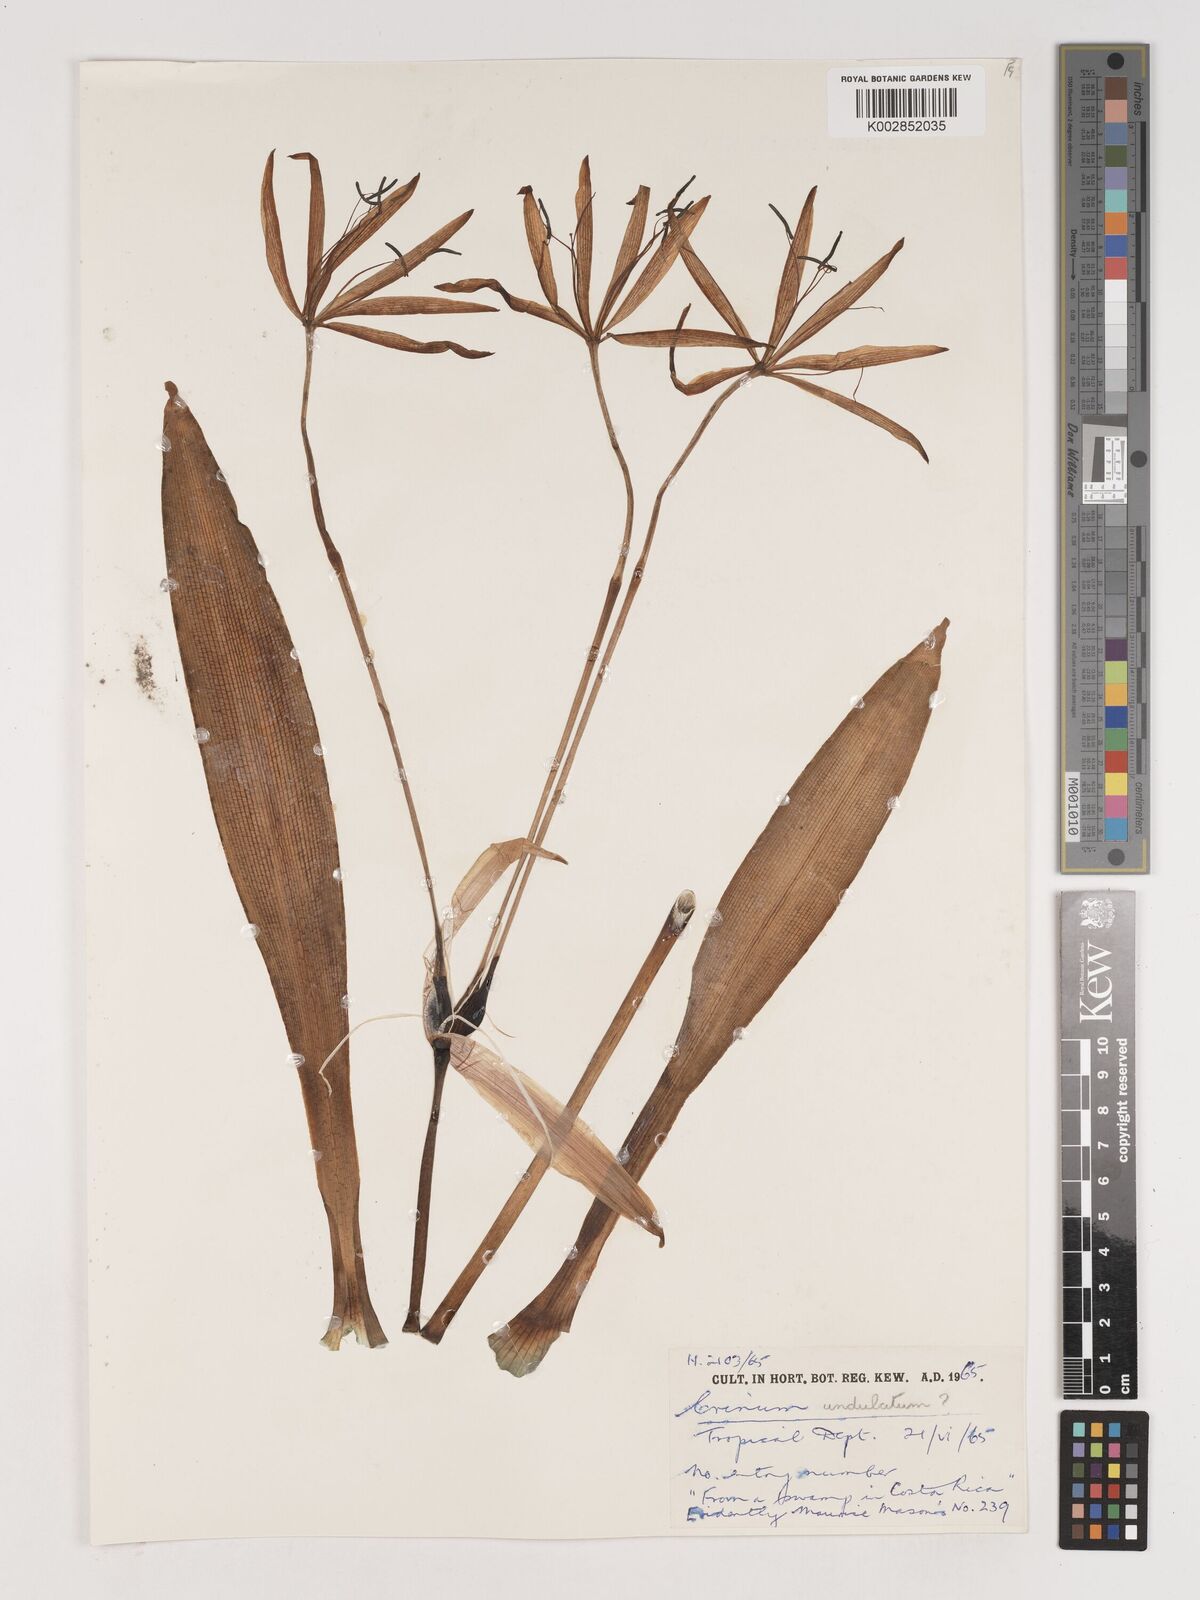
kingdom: Plantae
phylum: Tracheophyta
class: Liliopsida
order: Asparagales
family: Amaryllidaceae
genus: Crinum
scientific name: Crinum undulatum
